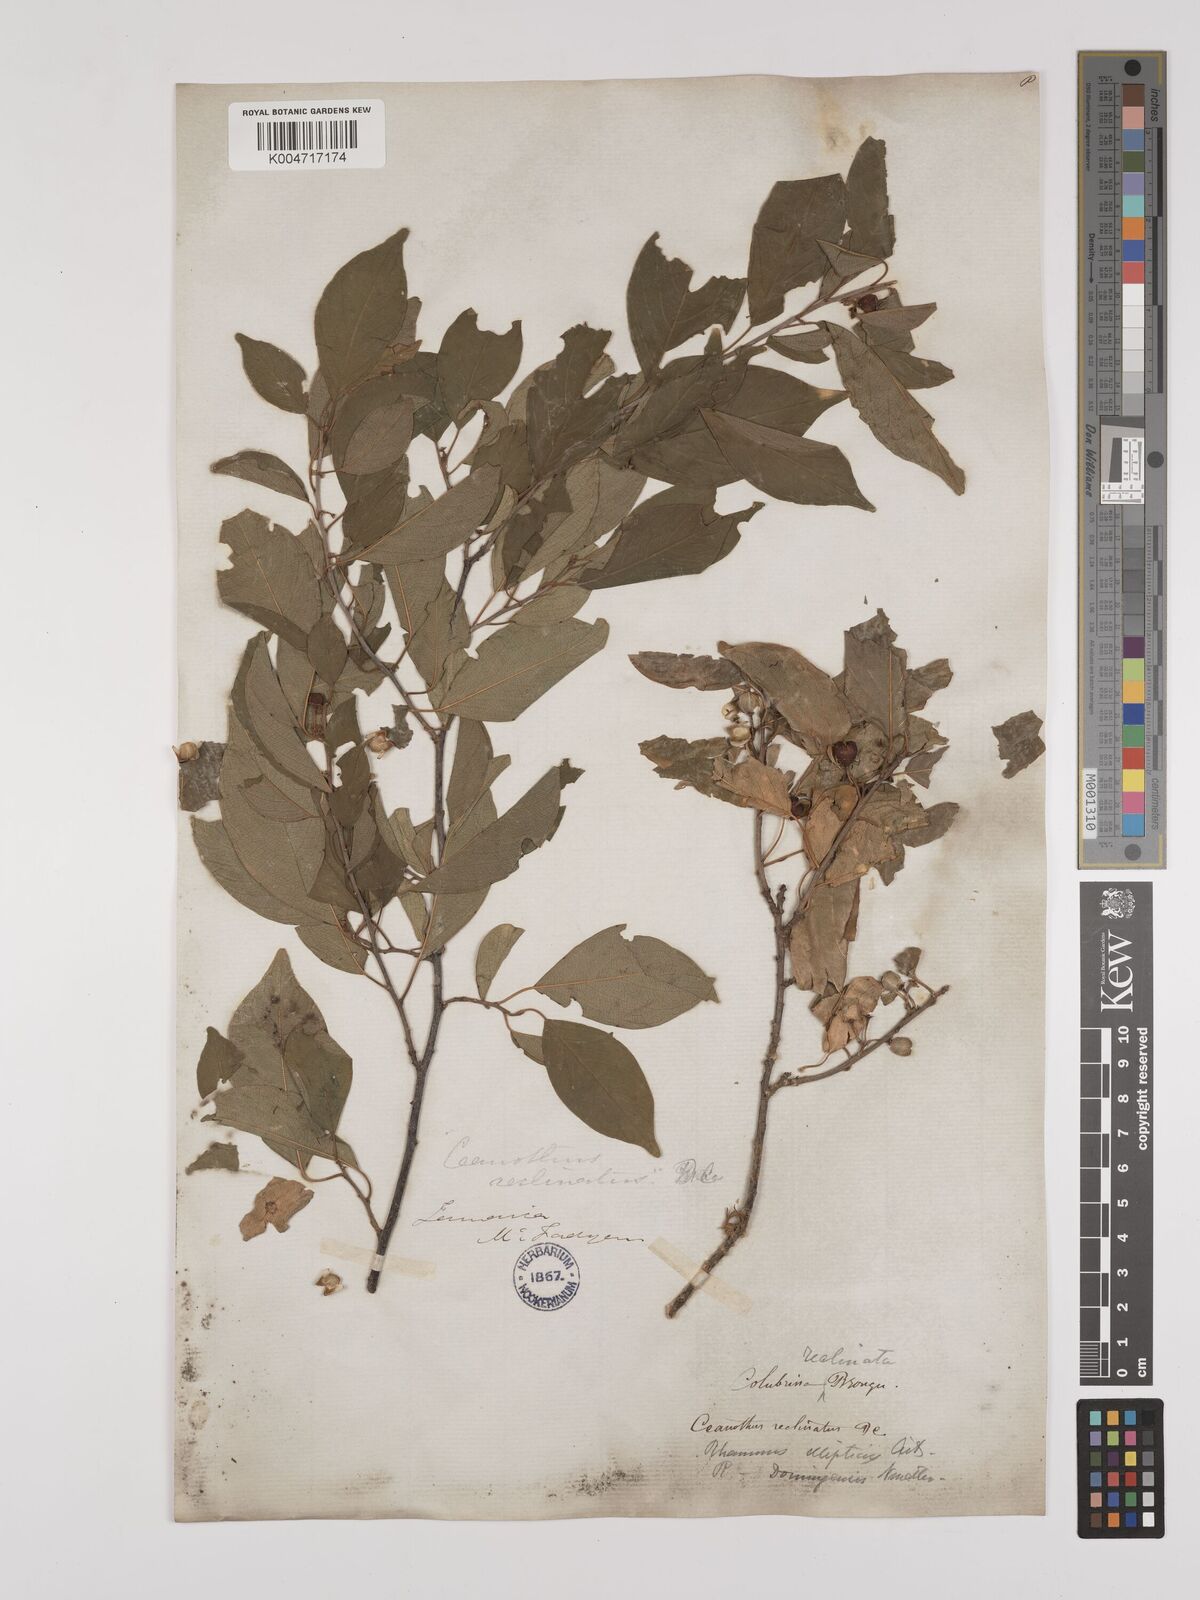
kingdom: Plantae
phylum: Tracheophyta
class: Magnoliopsida
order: Rosales
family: Rhamnaceae
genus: Colubrina
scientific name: Colubrina elliptica
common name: Soldierwood
